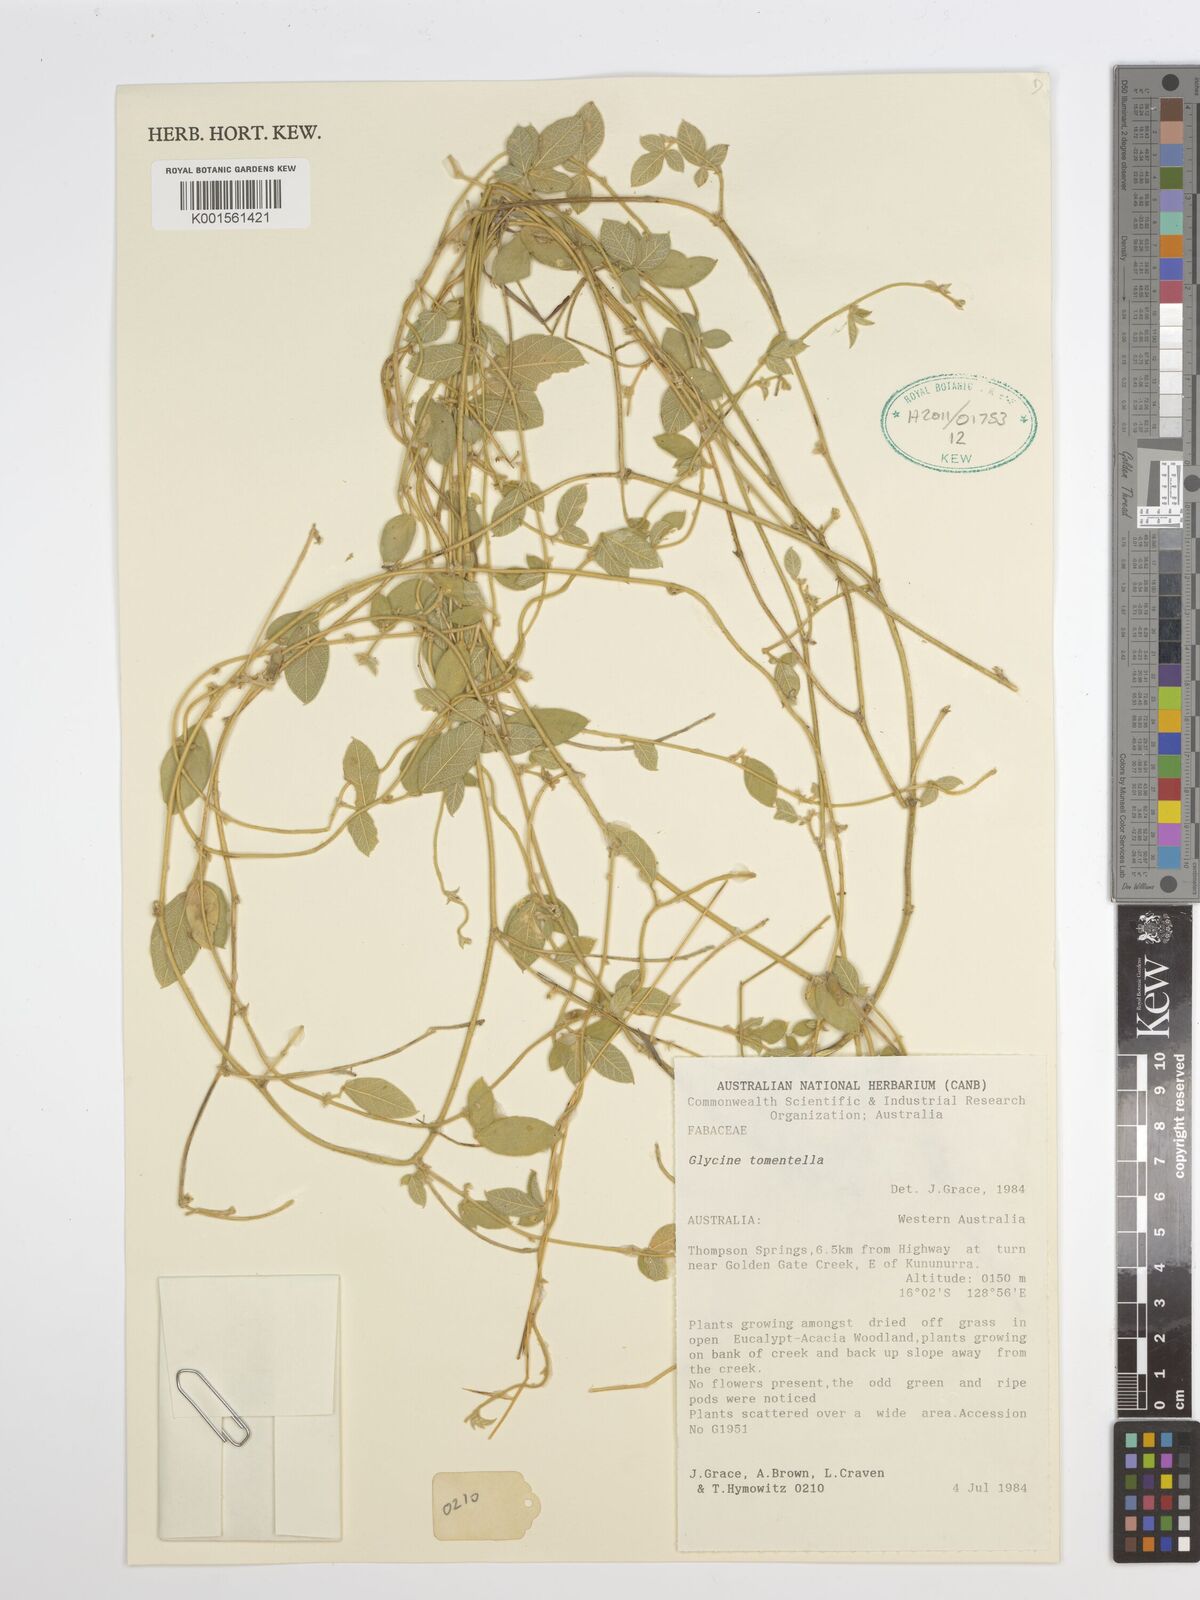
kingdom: Plantae
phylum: Tracheophyta
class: Magnoliopsida
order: Fabales
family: Fabaceae
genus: Glycine
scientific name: Glycine tomentella
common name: Hairy glycine
